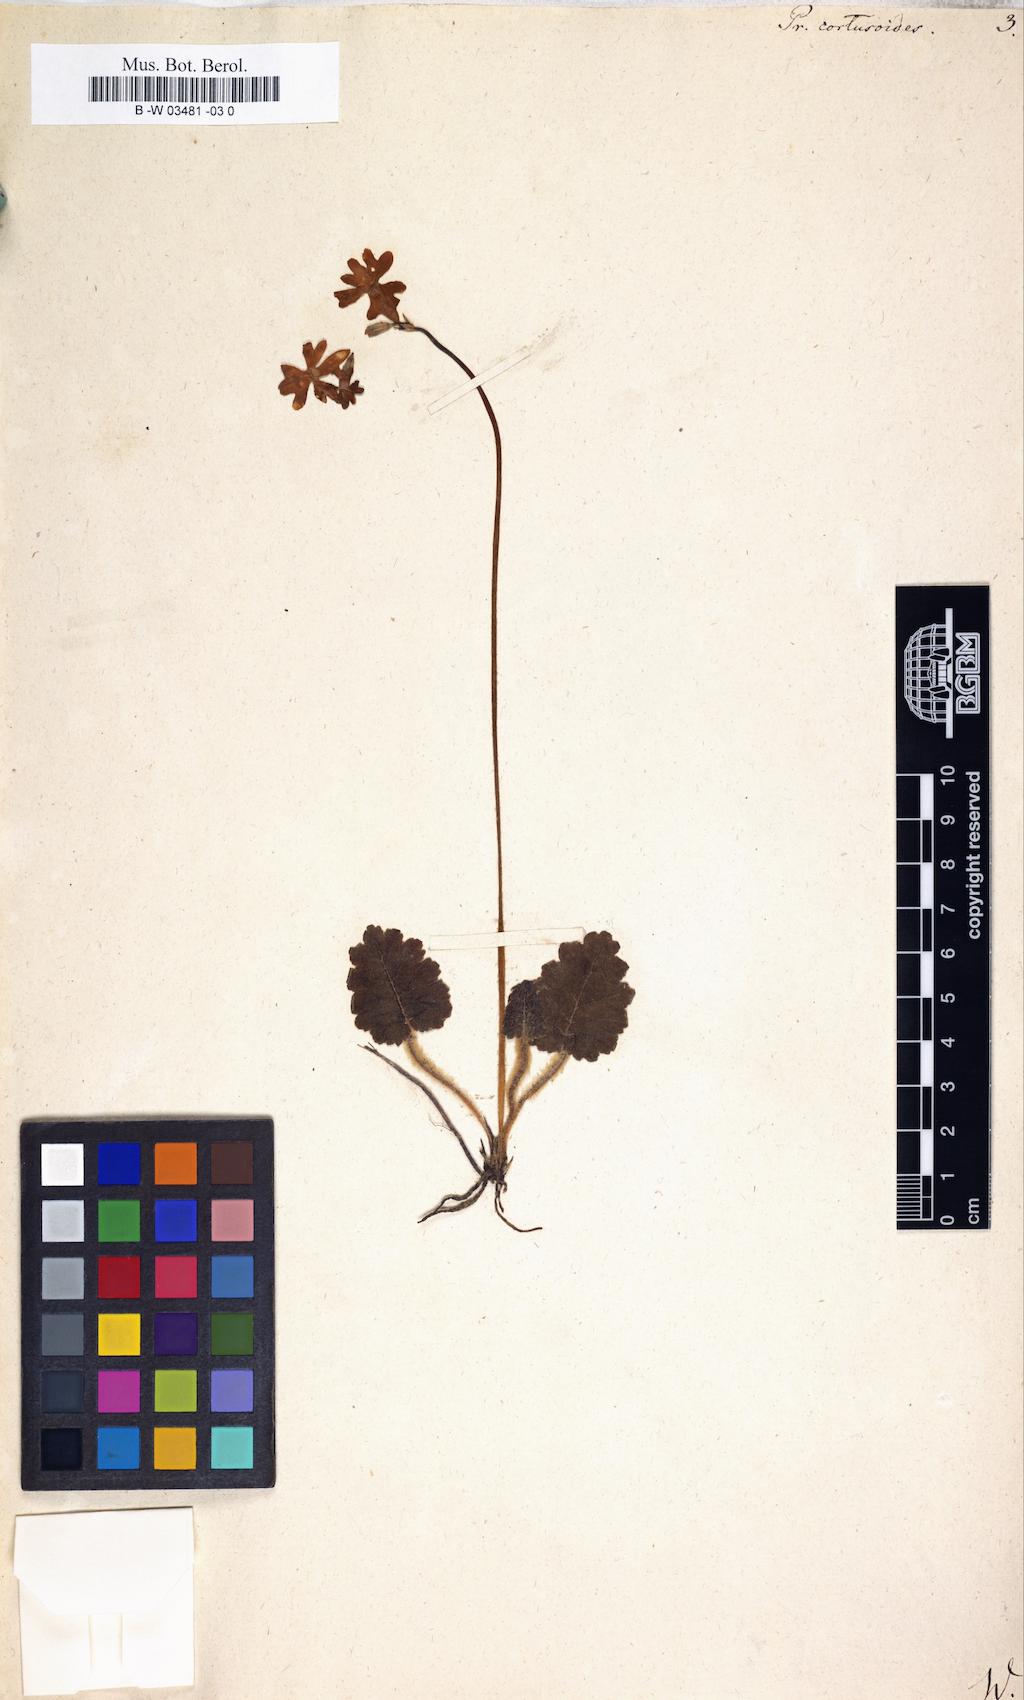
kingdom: Plantae
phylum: Tracheophyta
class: Magnoliopsida
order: Ericales
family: Primulaceae
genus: Primula
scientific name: Primula cortusoides
